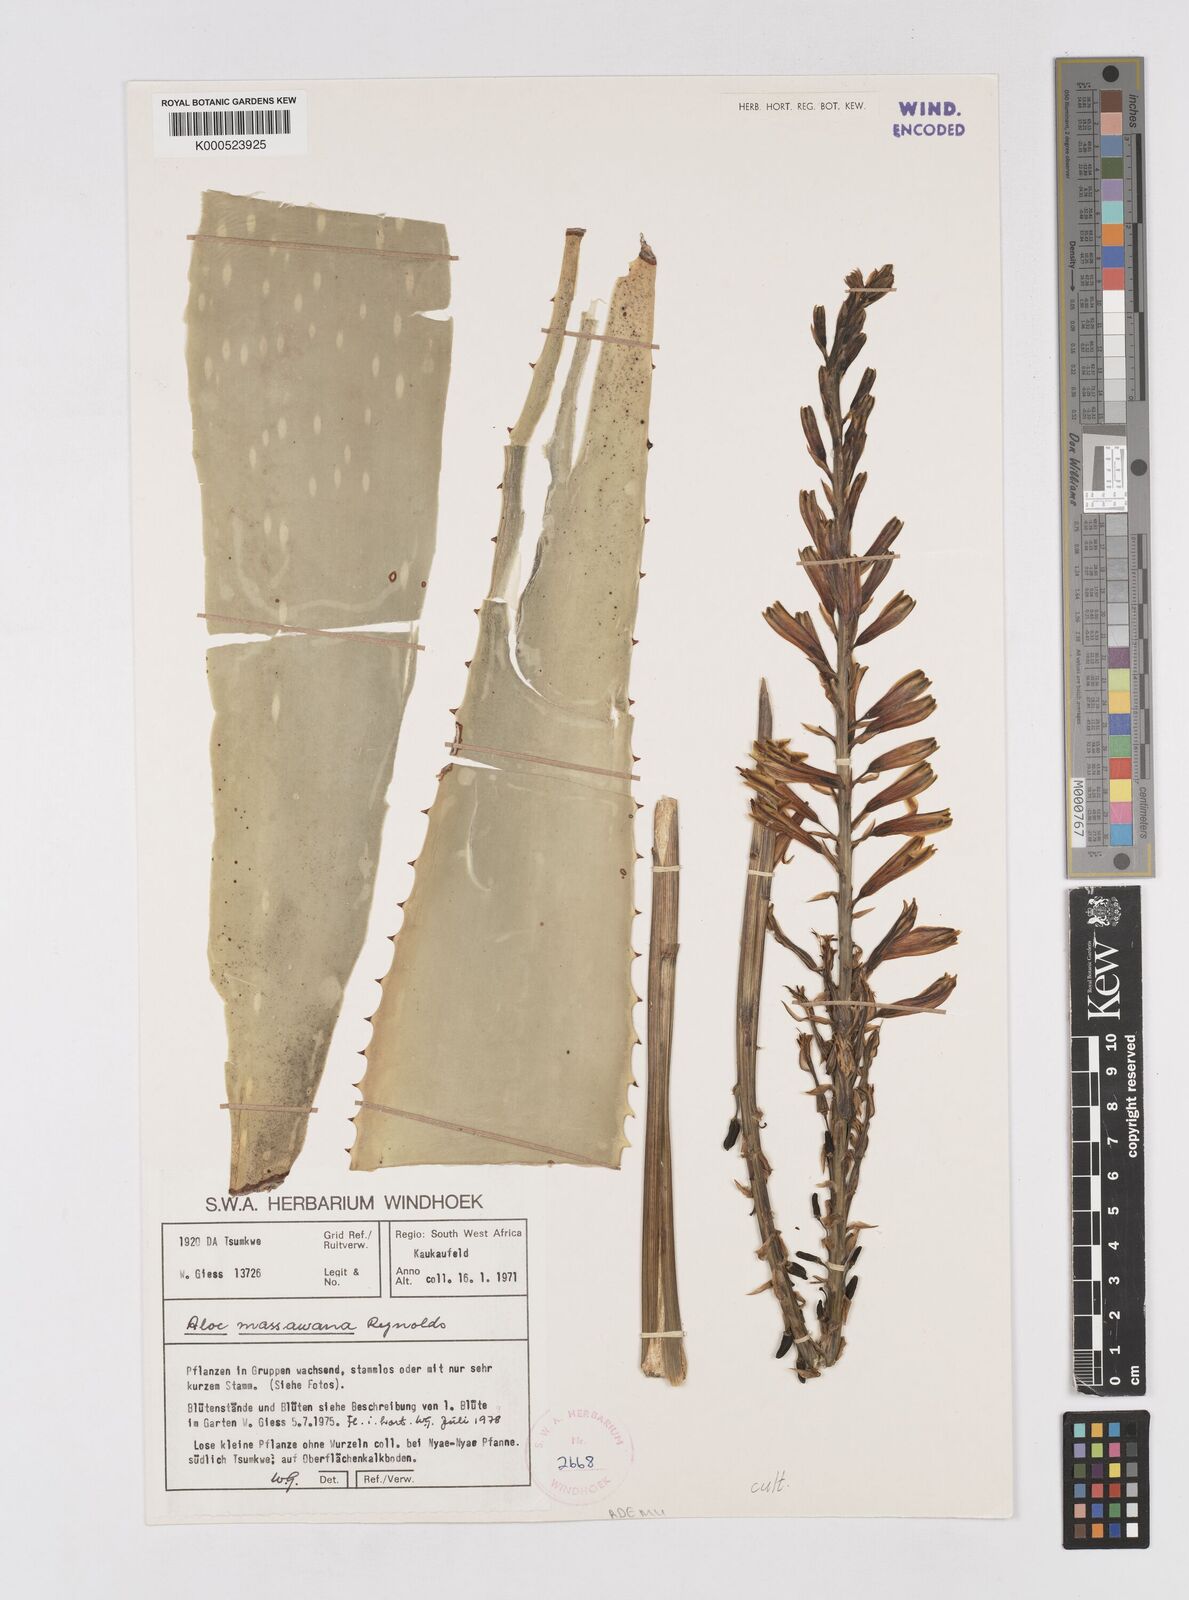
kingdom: Plantae
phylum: Tracheophyta
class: Liliopsida
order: Asparagales
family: Asphodelaceae
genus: Aloe
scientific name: Aloe massawana
